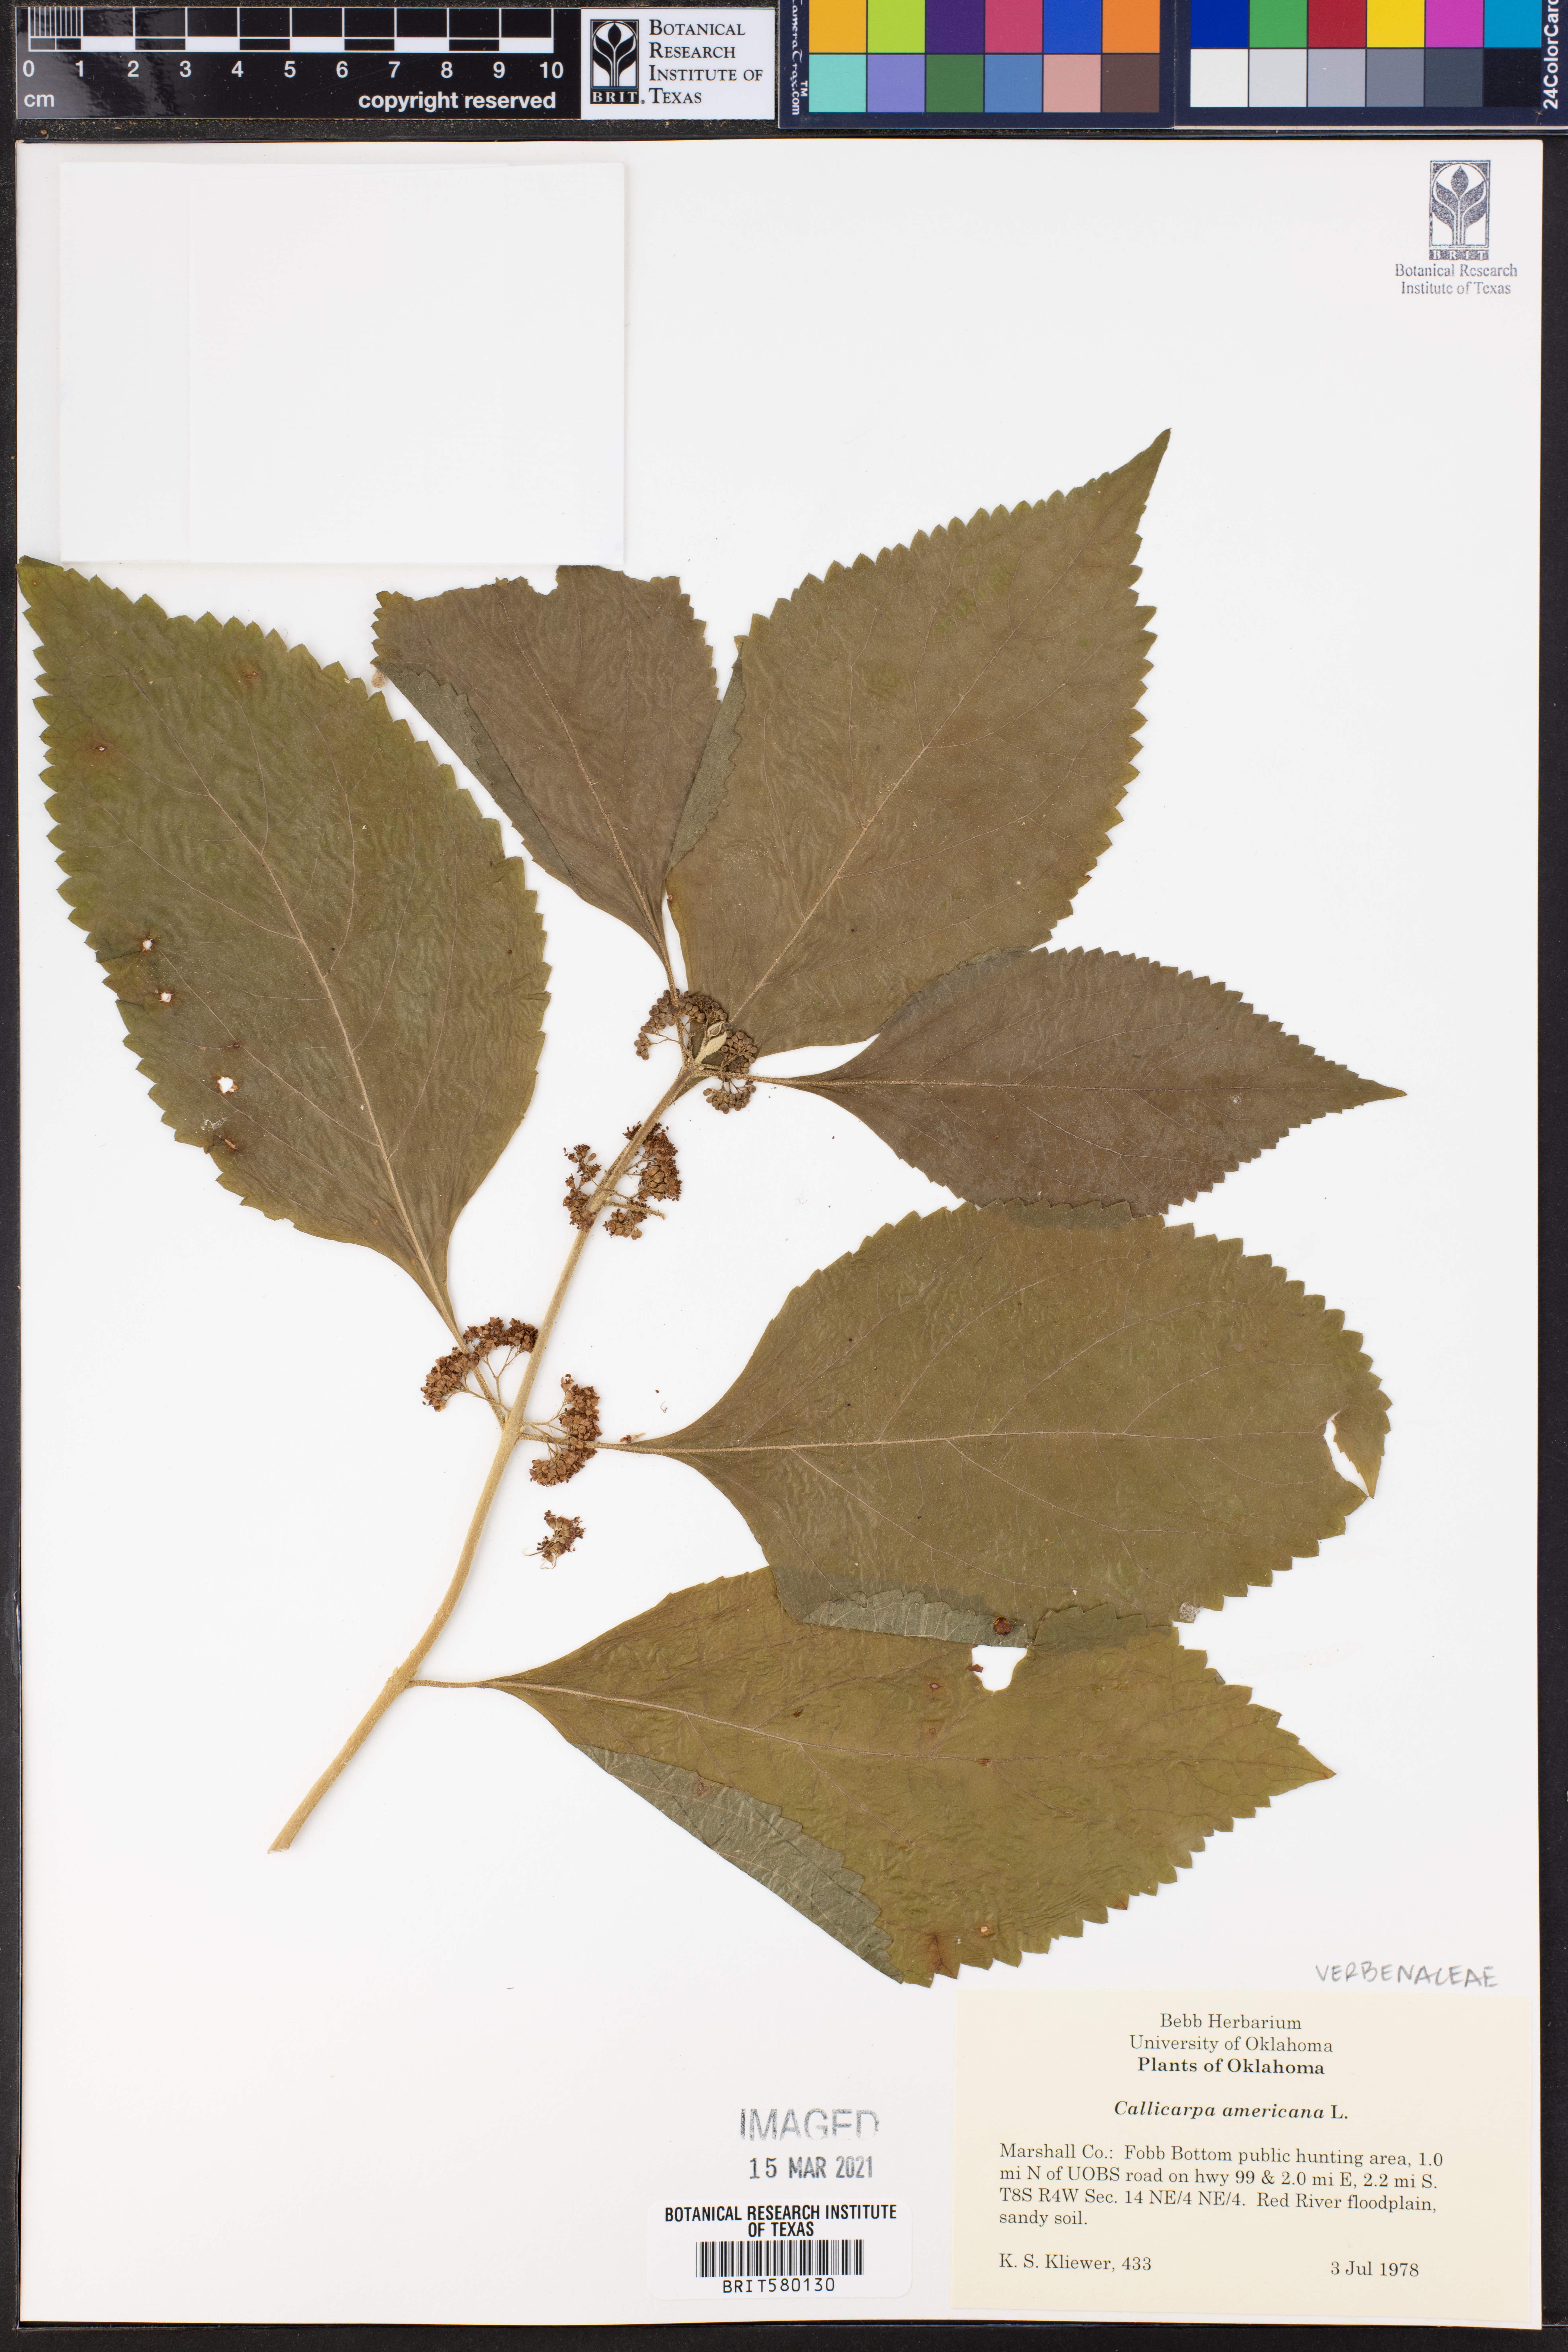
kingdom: Plantae
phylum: Tracheophyta
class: Magnoliopsida
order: Lamiales
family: Lamiaceae
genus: Callicarpa
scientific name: Callicarpa americana
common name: American beautyberry
